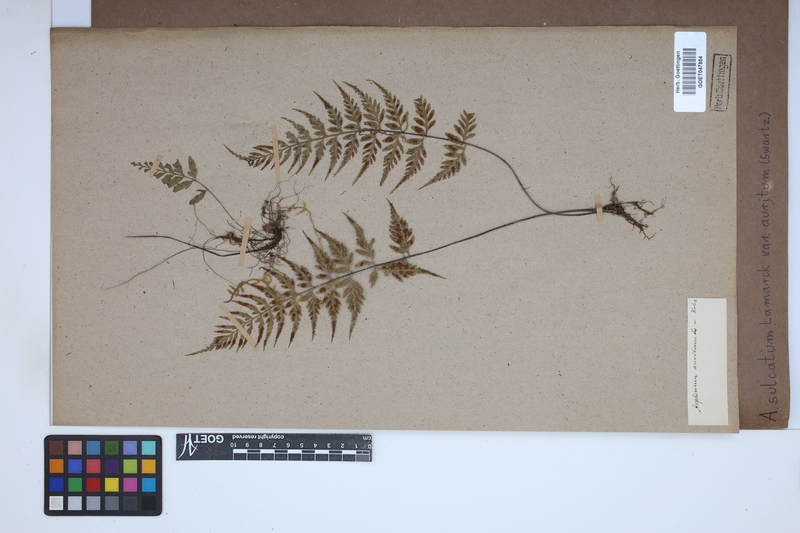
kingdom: Plantae
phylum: Tracheophyta
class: Polypodiopsida
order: Polypodiales
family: Aspleniaceae
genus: Asplenium
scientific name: Asplenium auritum
